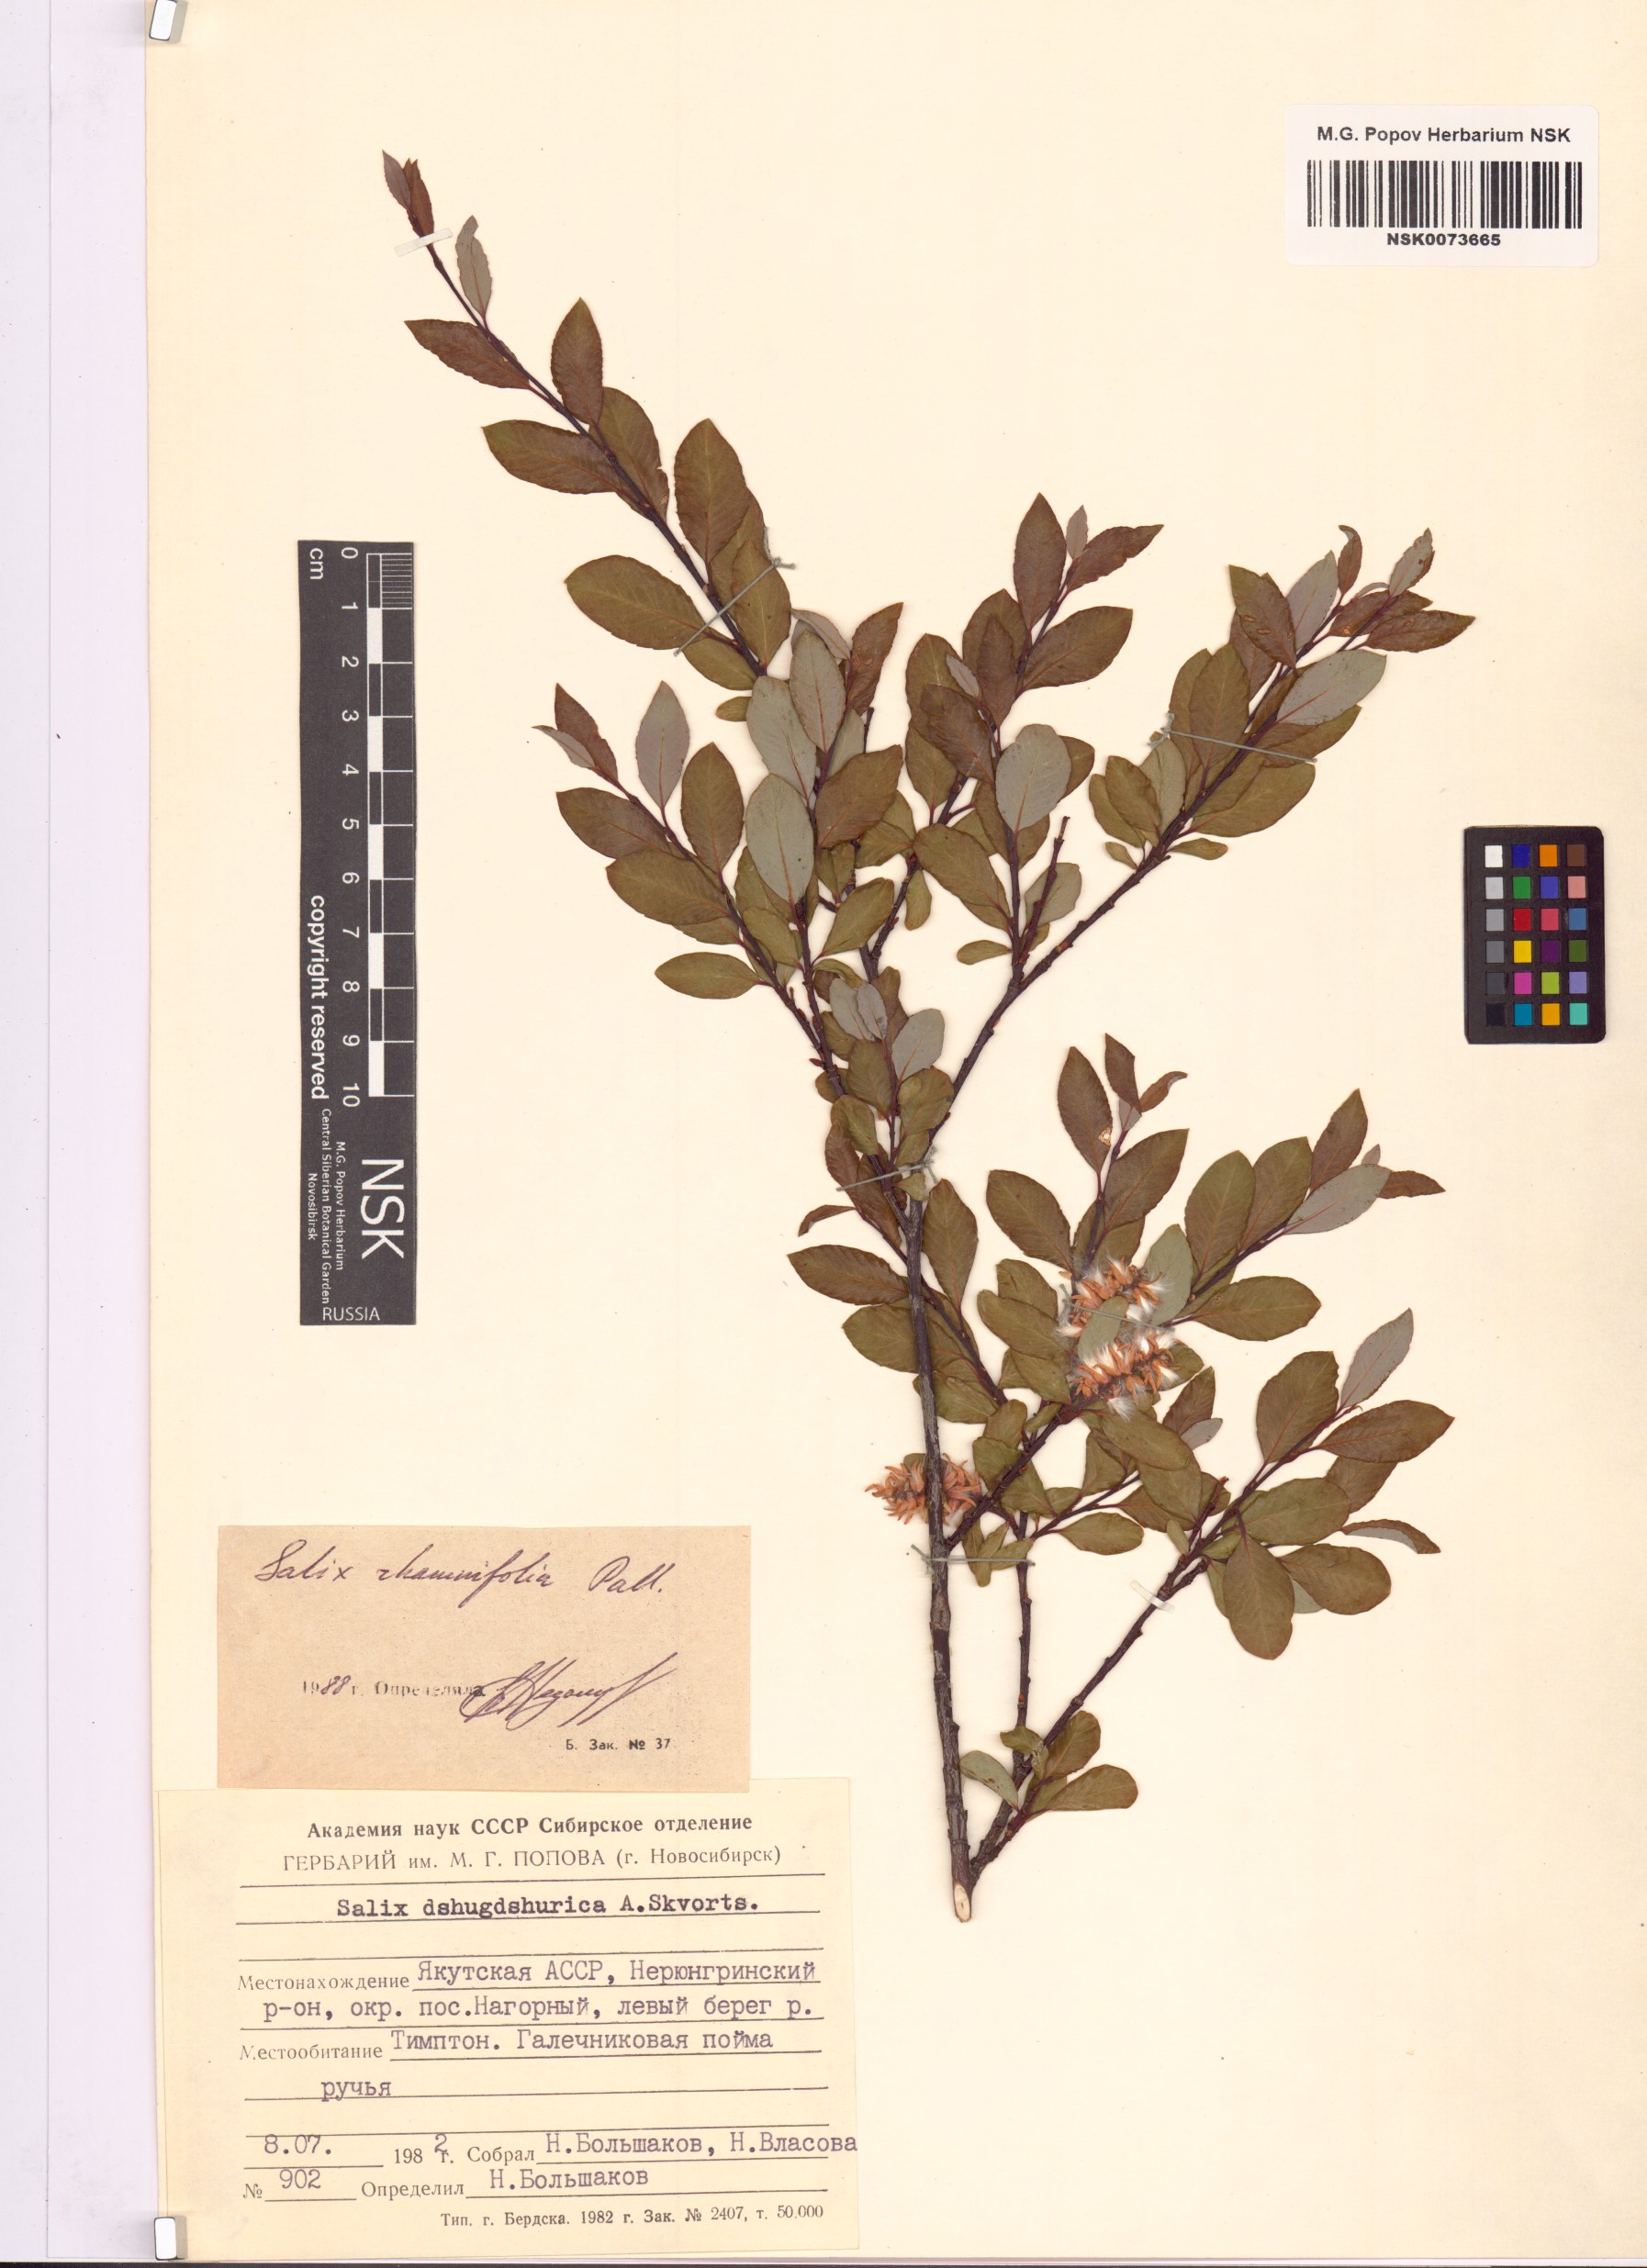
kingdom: Plantae
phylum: Tracheophyta
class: Magnoliopsida
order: Malpighiales
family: Salicaceae
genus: Salix
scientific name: Salix rhamnifolia
